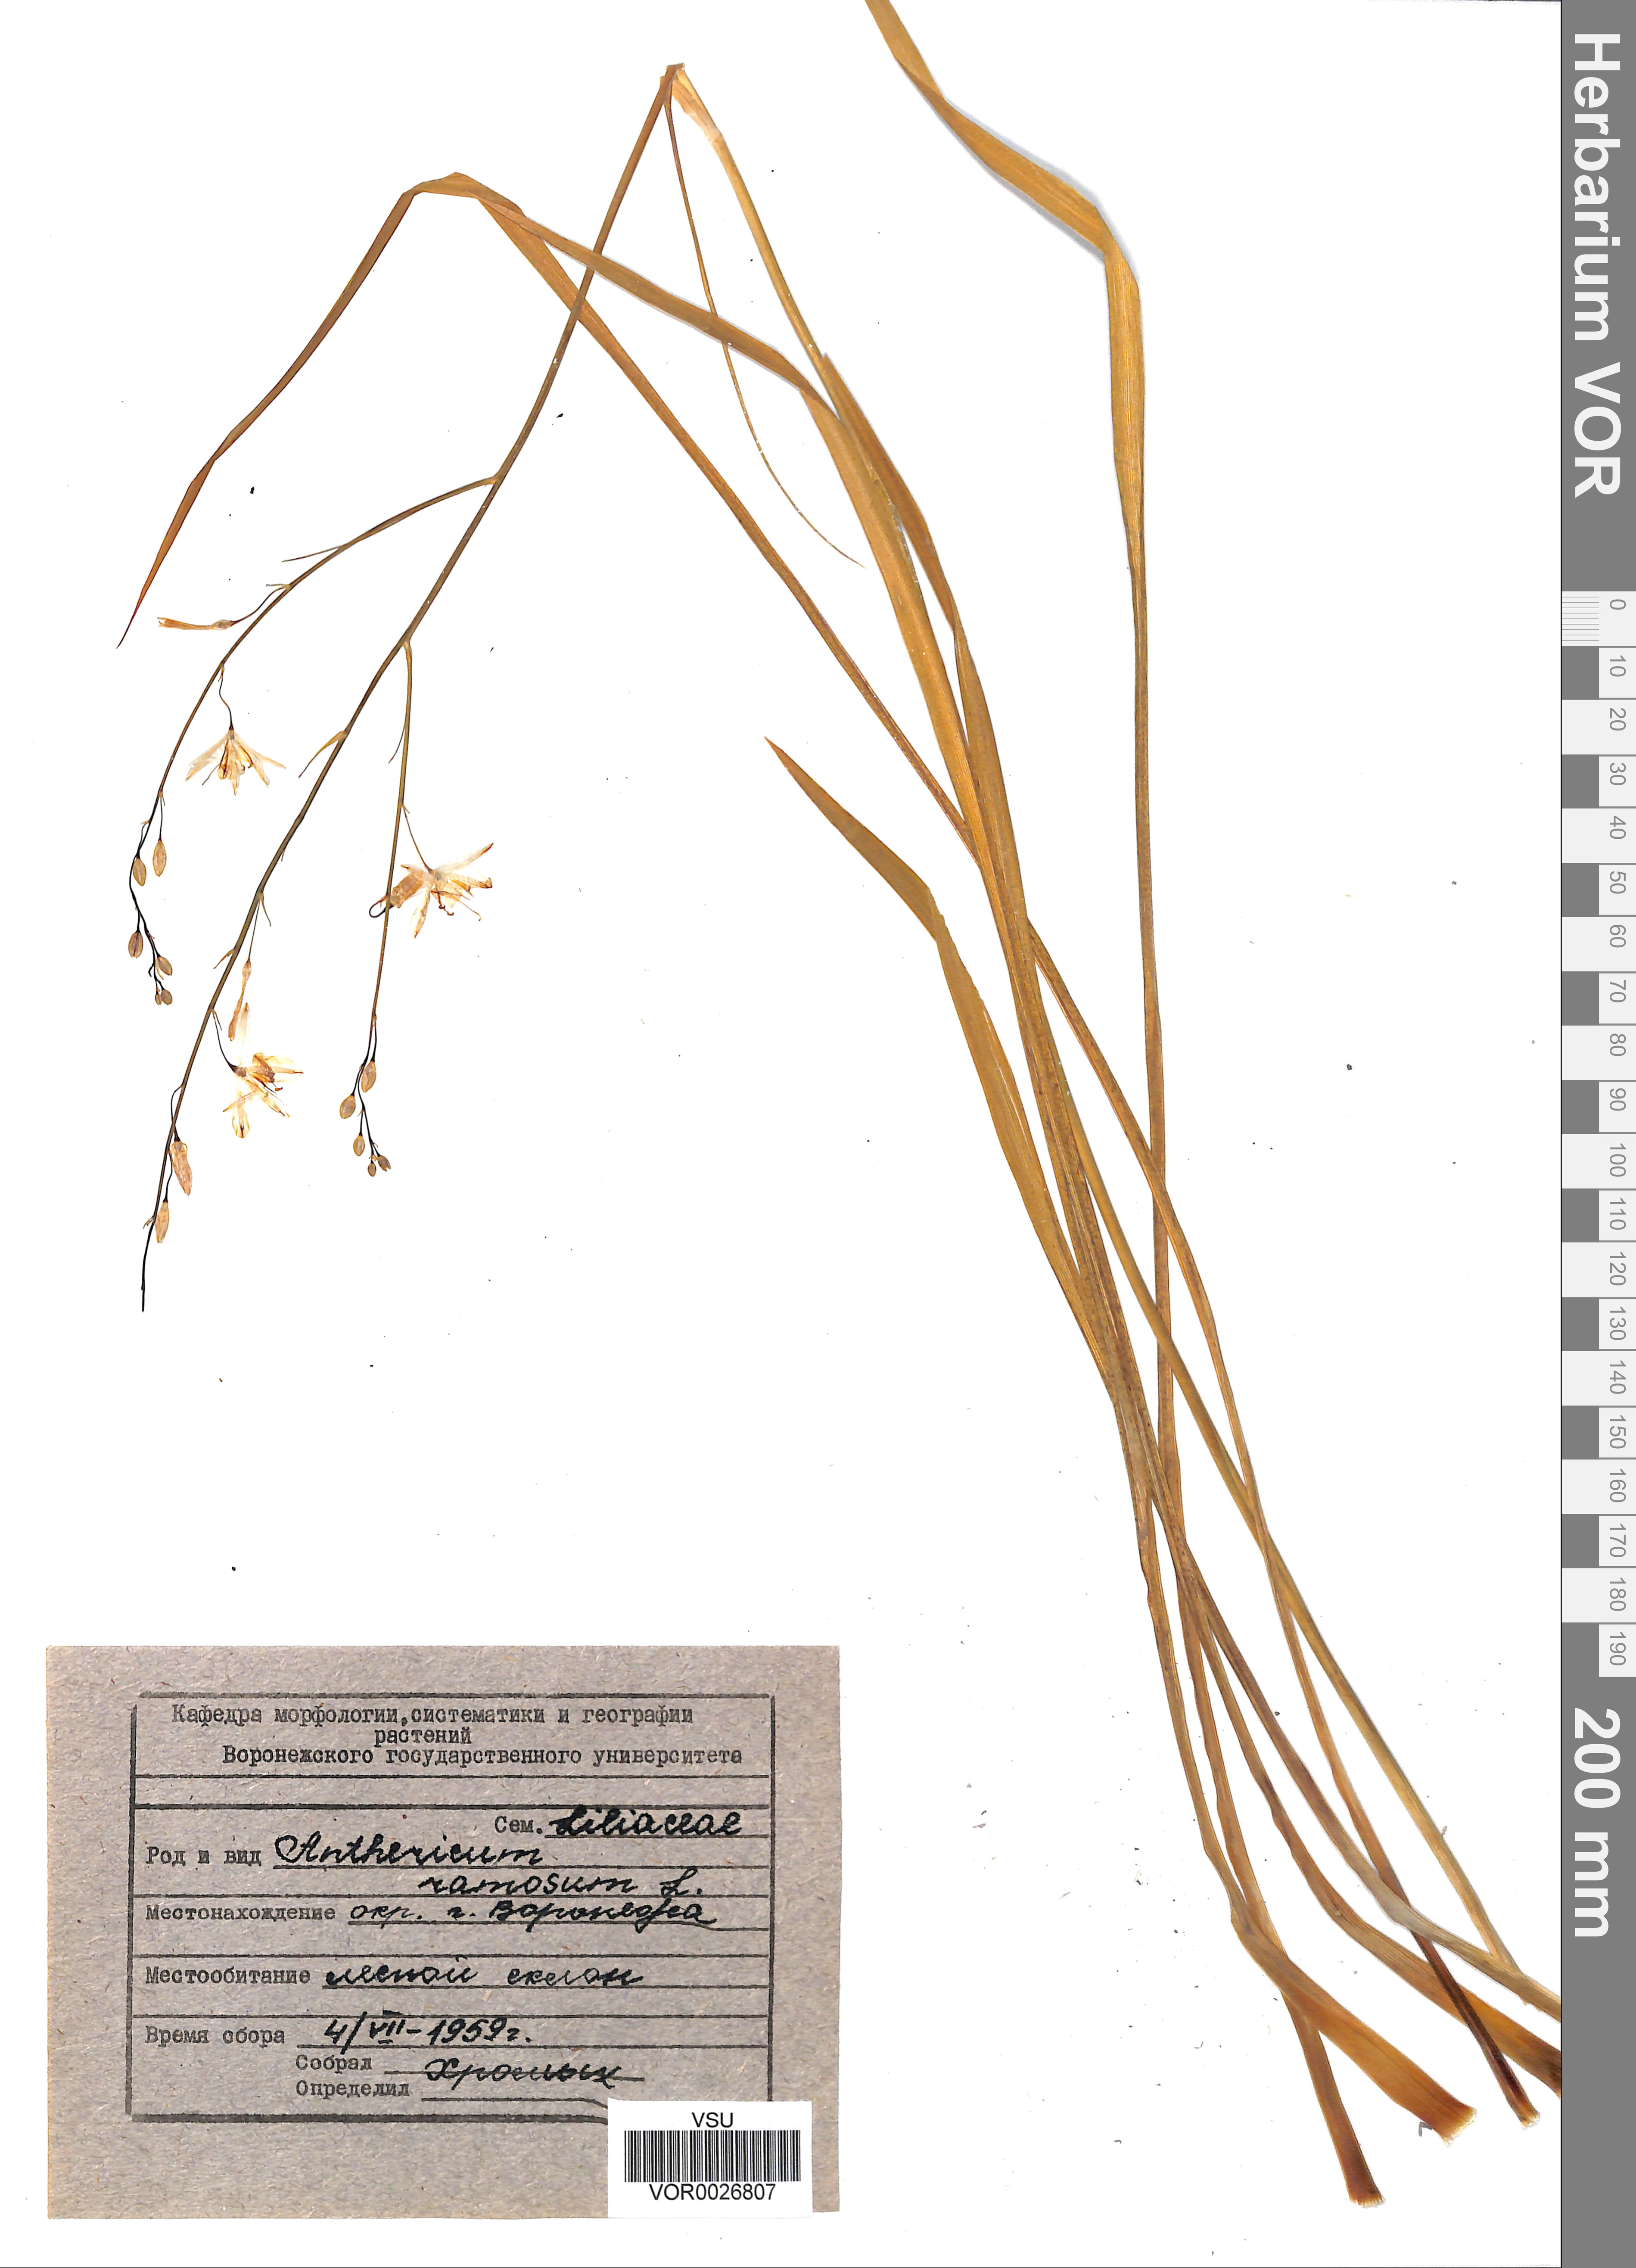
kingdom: Plantae
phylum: Tracheophyta
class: Liliopsida
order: Asparagales
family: Asparagaceae
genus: Anthericum
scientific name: Anthericum ramosum
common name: Branched st. bernard's-lily
